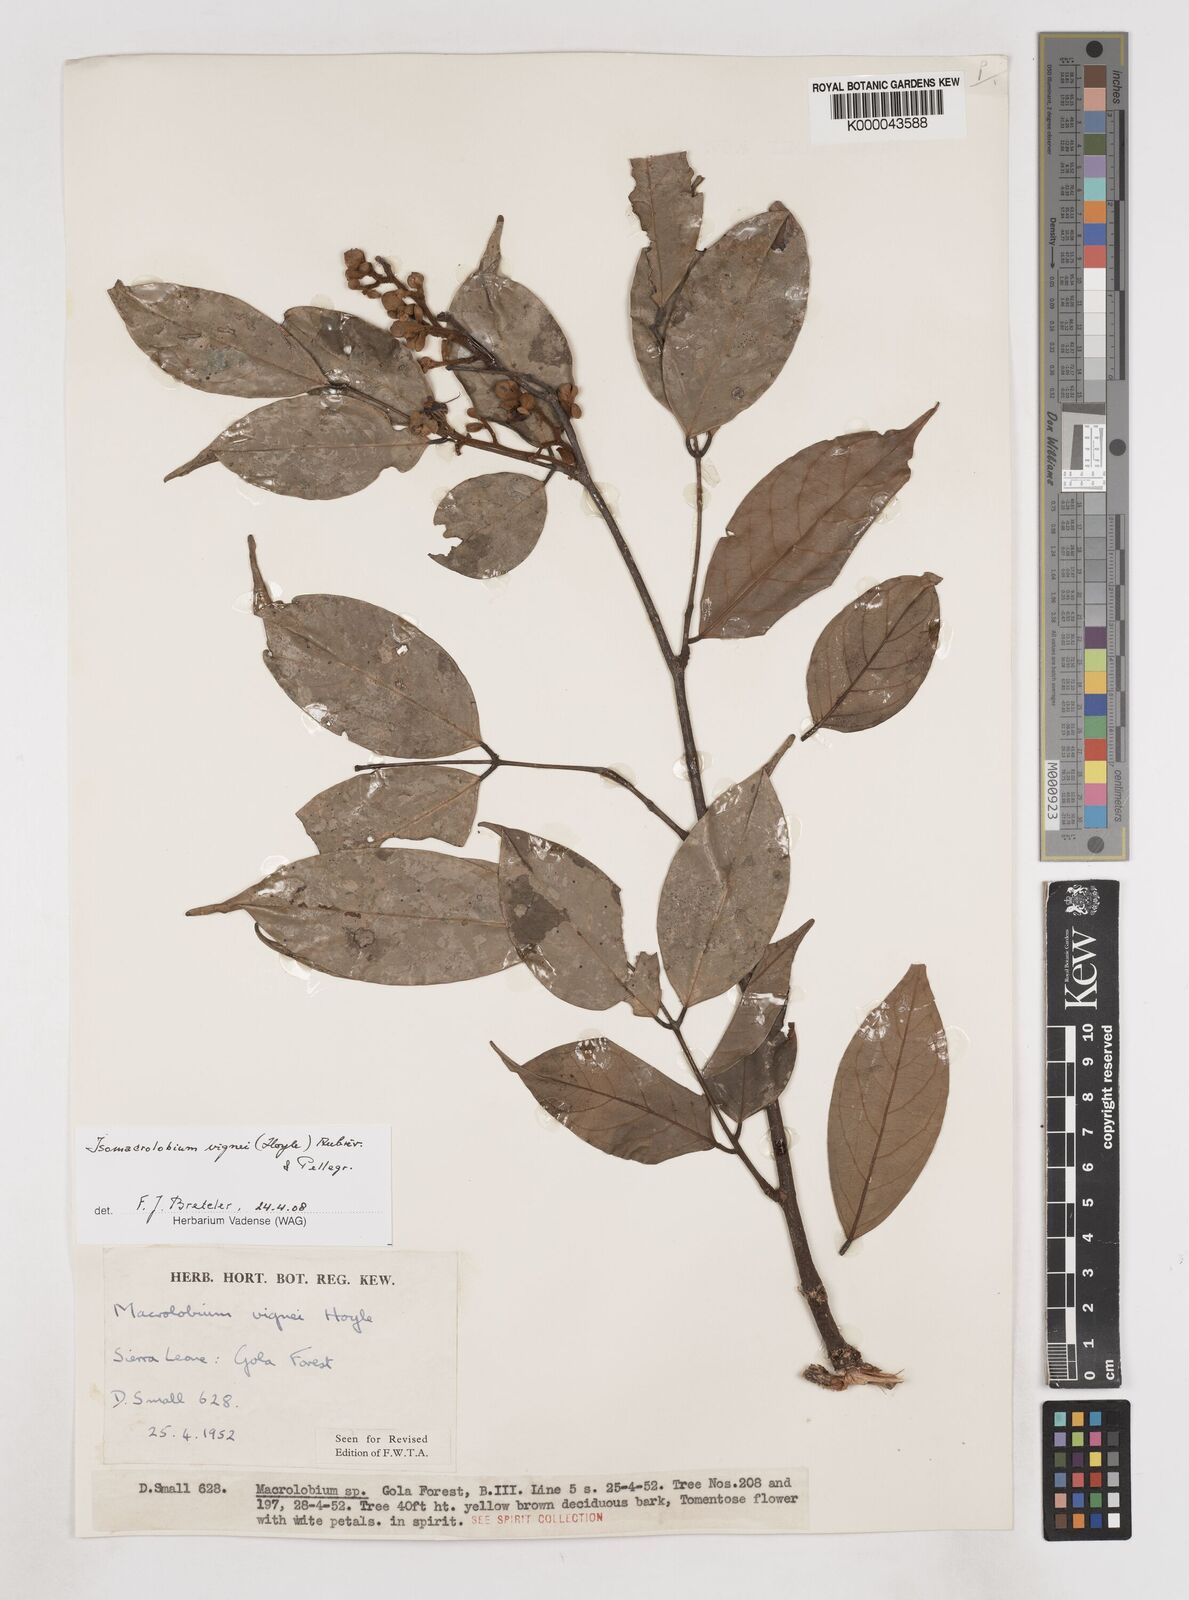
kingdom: Plantae
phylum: Tracheophyta
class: Magnoliopsida
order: Fabales
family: Fabaceae
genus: Englerodendron
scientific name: Englerodendron vignei
